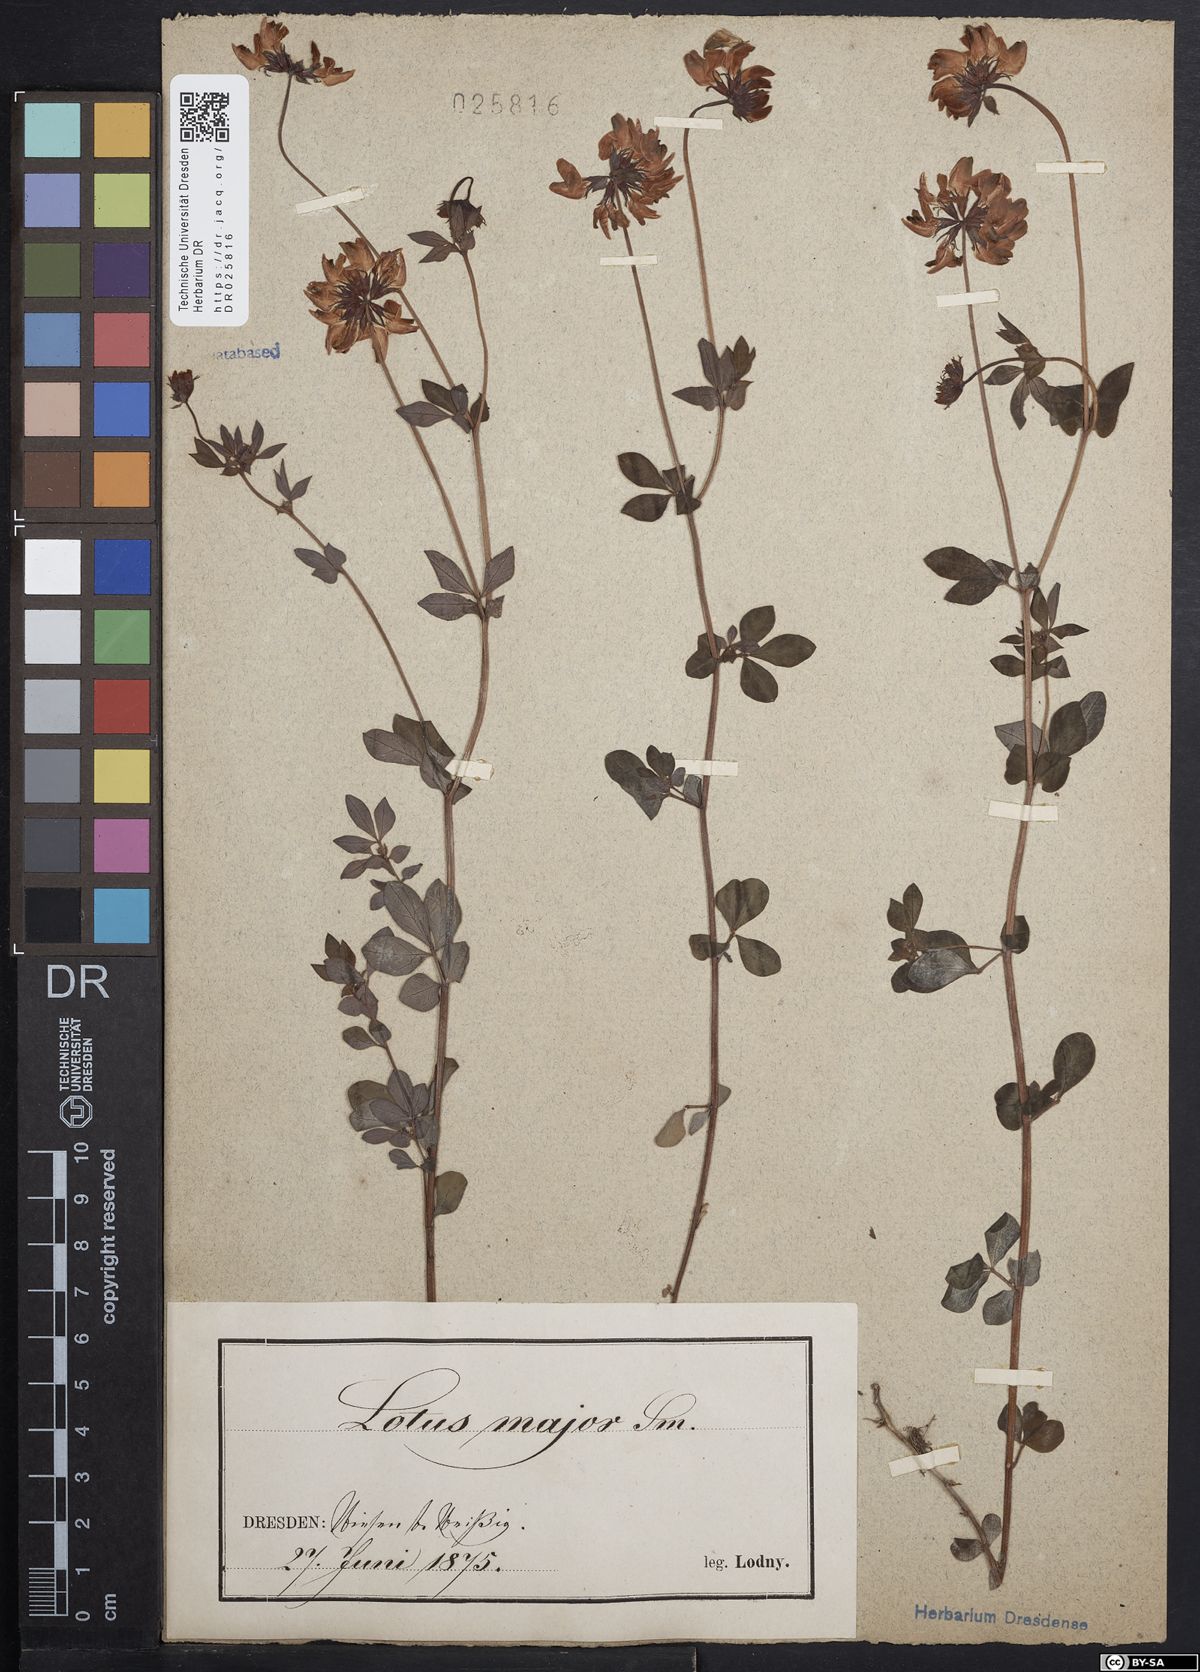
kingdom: Plantae
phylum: Tracheophyta
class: Magnoliopsida
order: Fabales
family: Fabaceae
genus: Lotus
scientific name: Lotus pedunculatus
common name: Greater birdsfoot-trefoil
